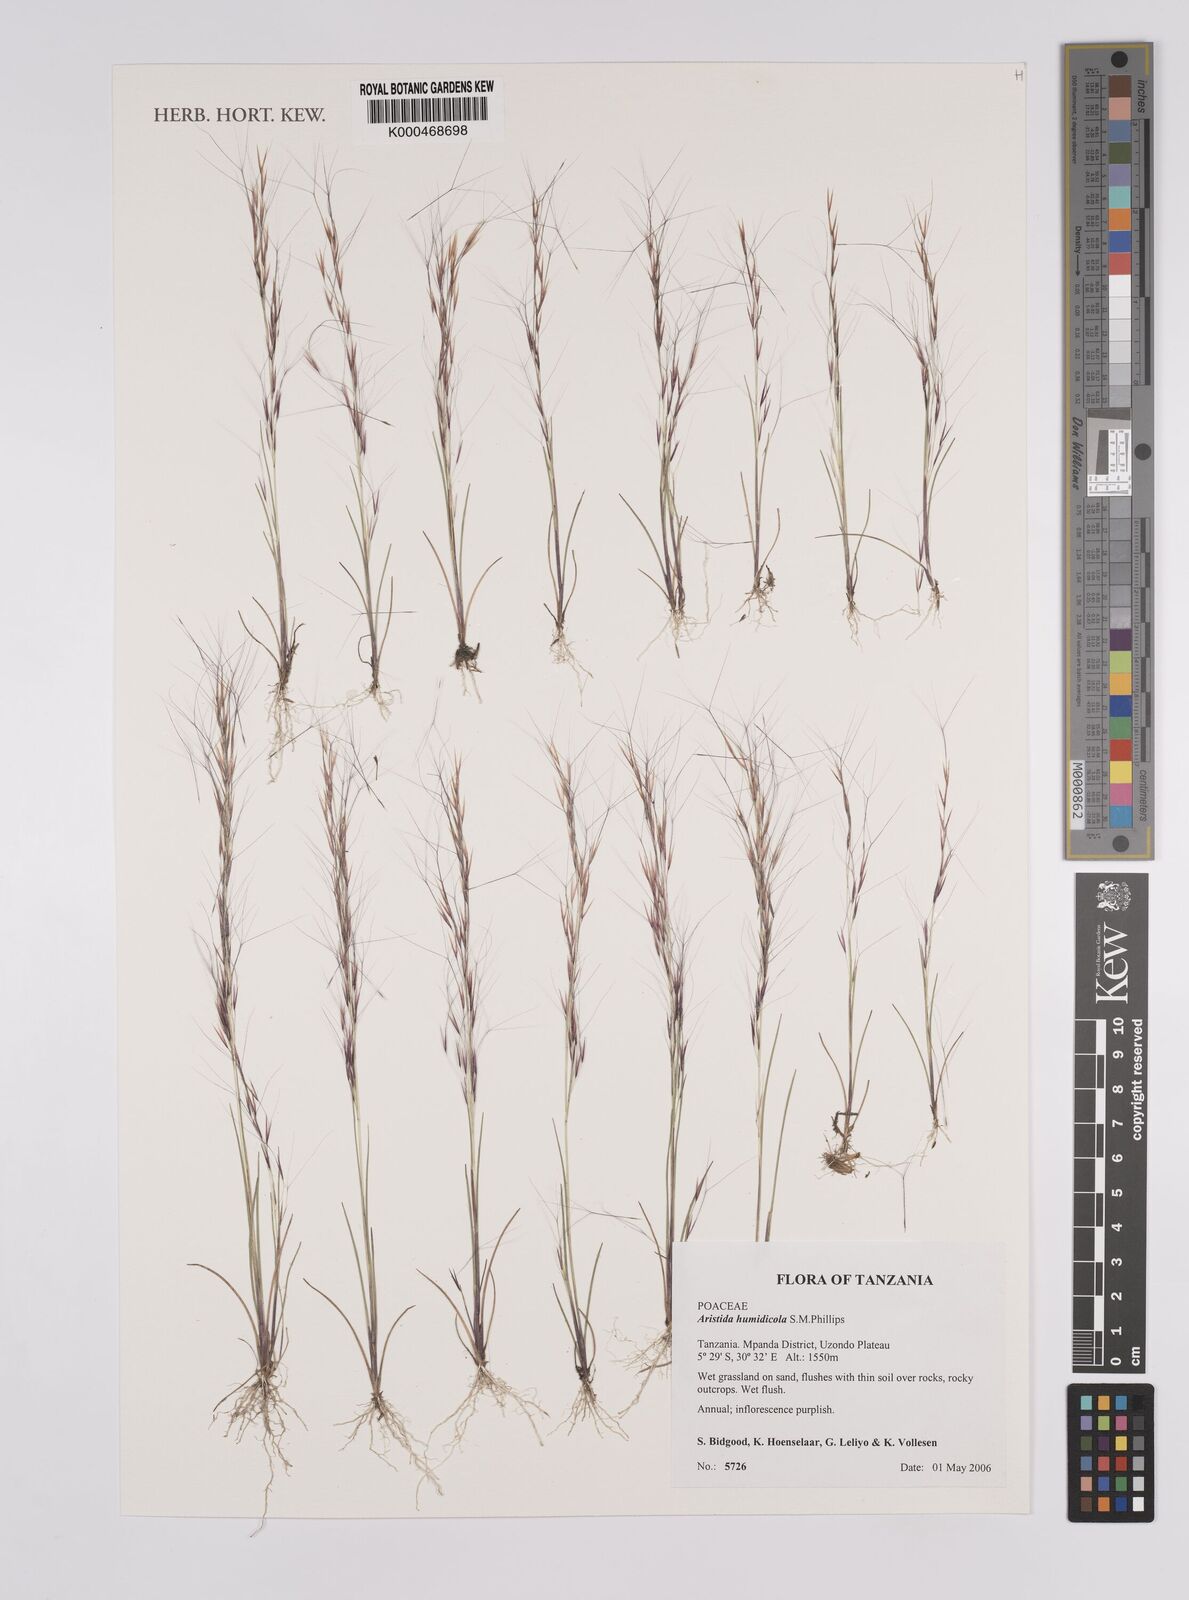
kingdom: Plantae
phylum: Tracheophyta
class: Liliopsida
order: Poales
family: Poaceae
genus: Aristida
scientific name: Aristida humidicola
